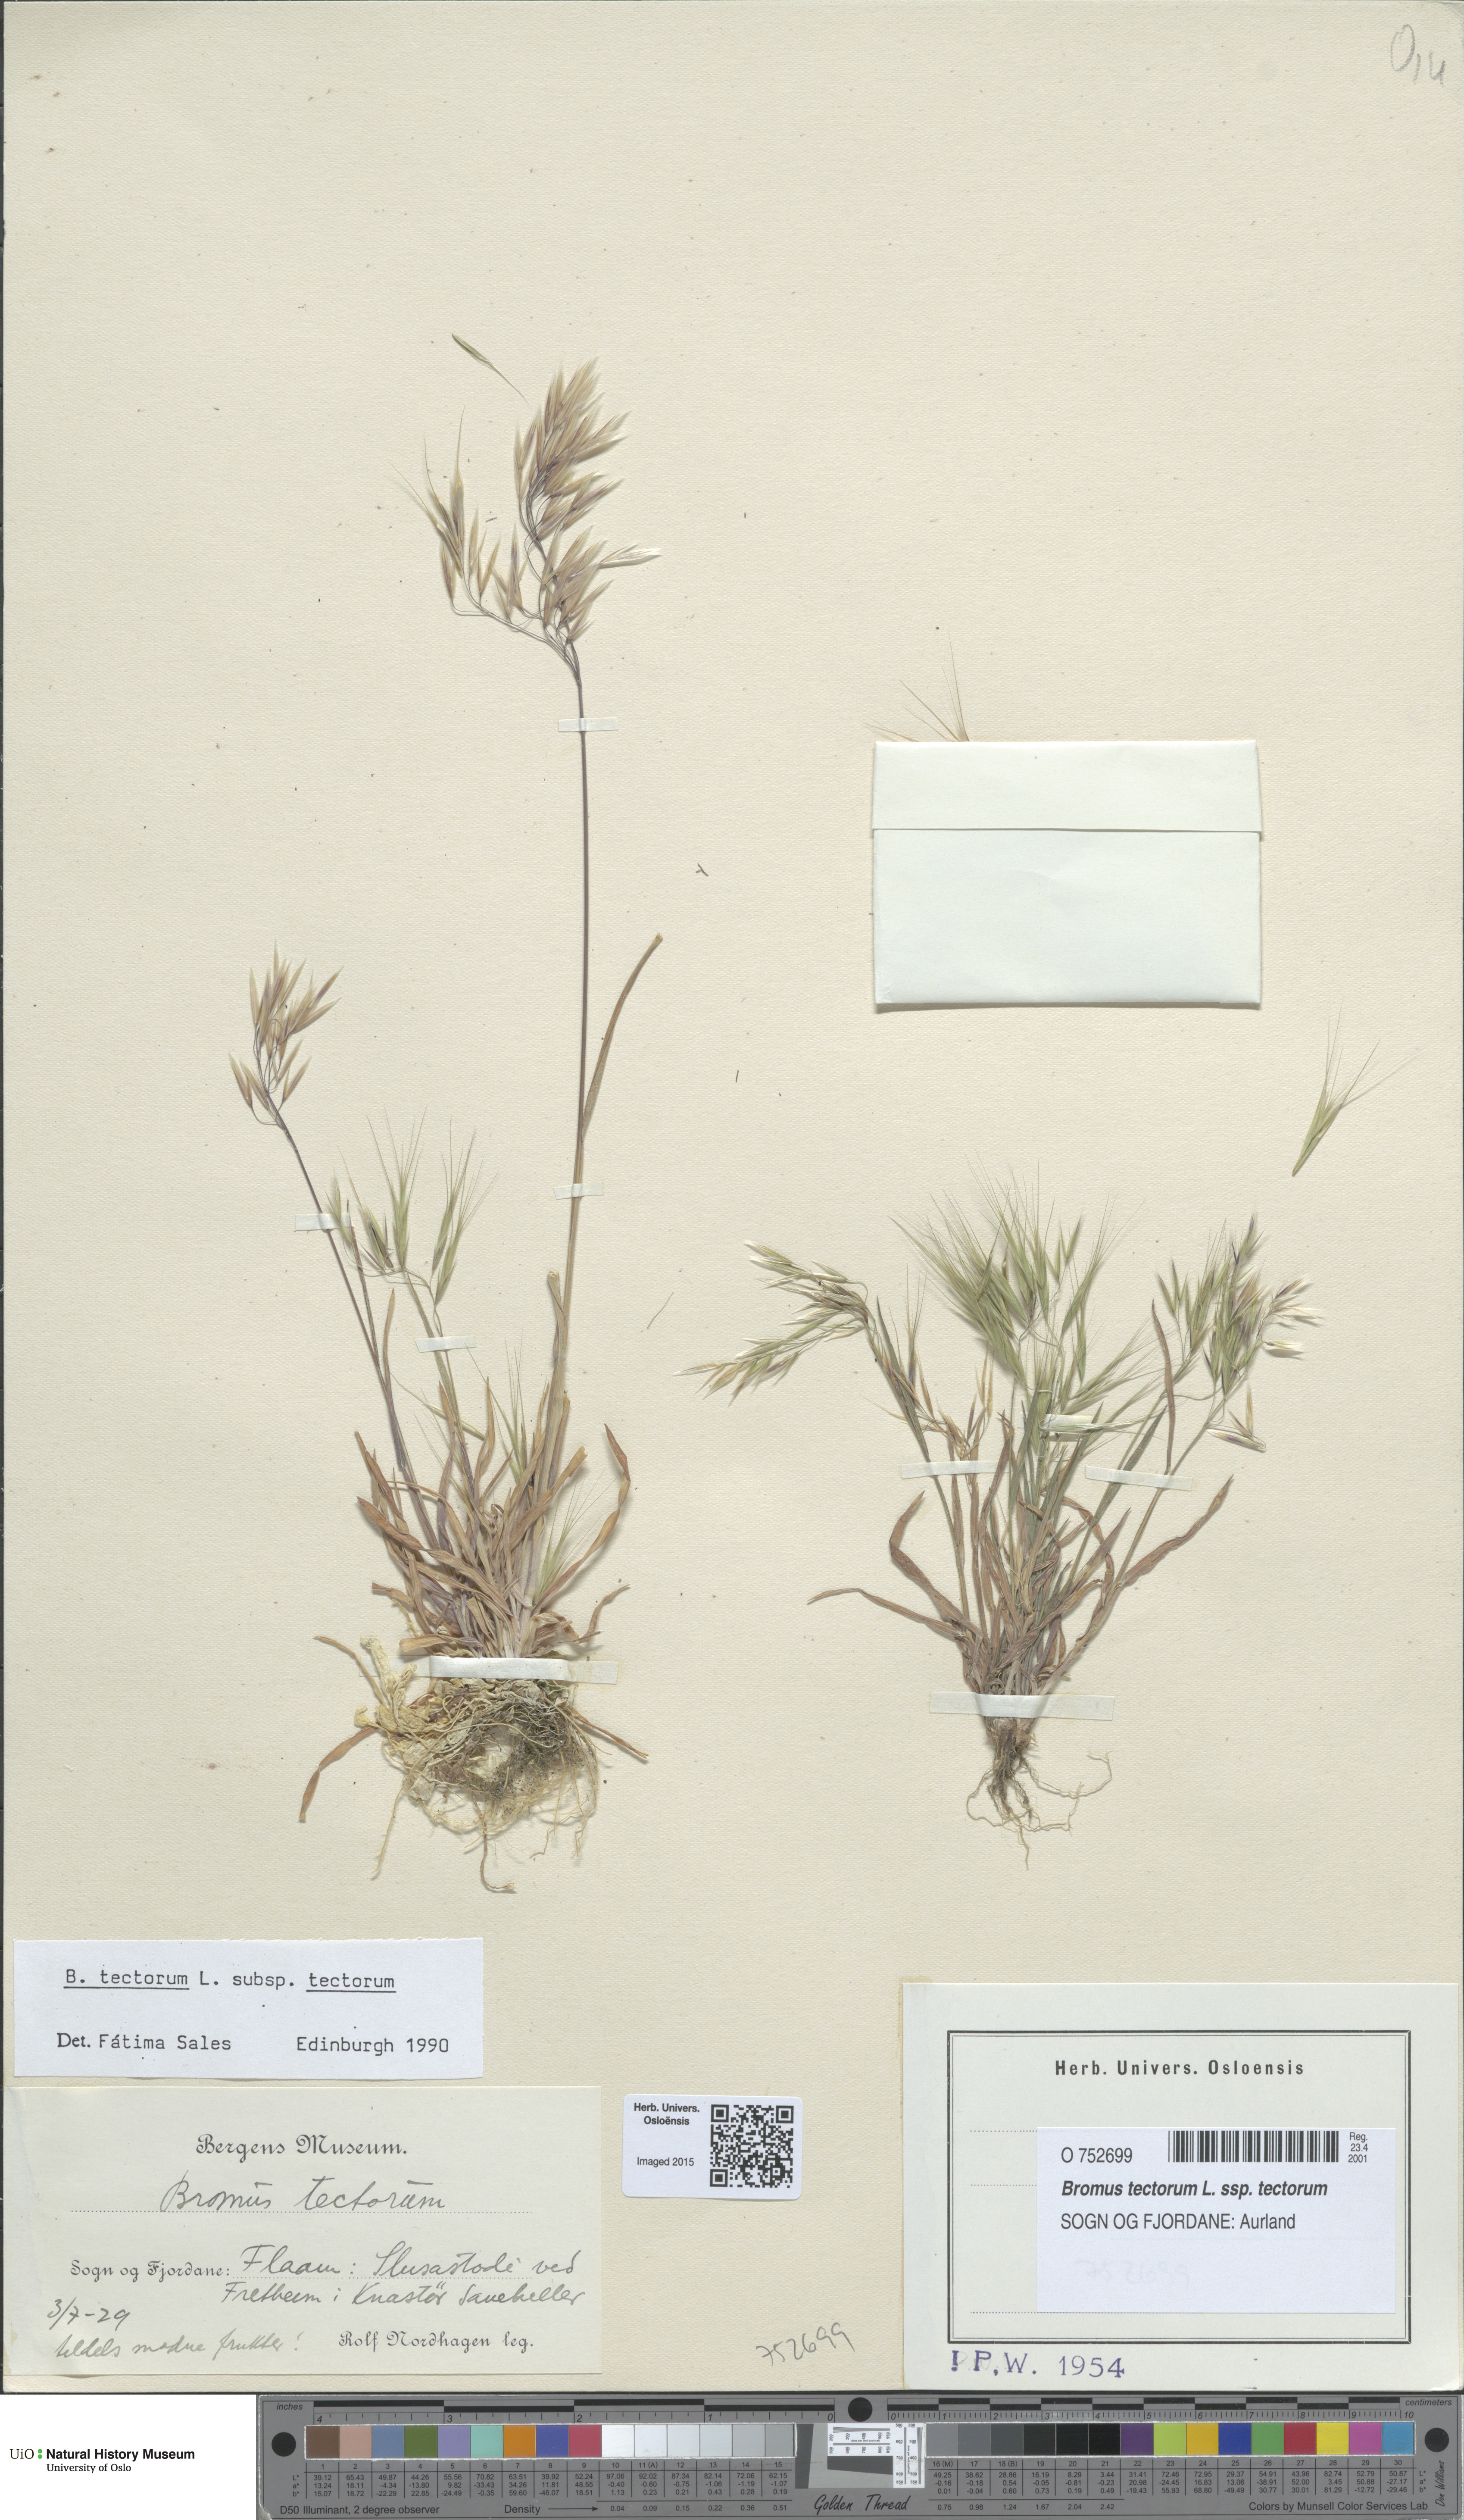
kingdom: Plantae
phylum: Tracheophyta
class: Liliopsida
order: Poales
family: Poaceae
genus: Bromus
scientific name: Bromus tectorum
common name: Cheatgrass
